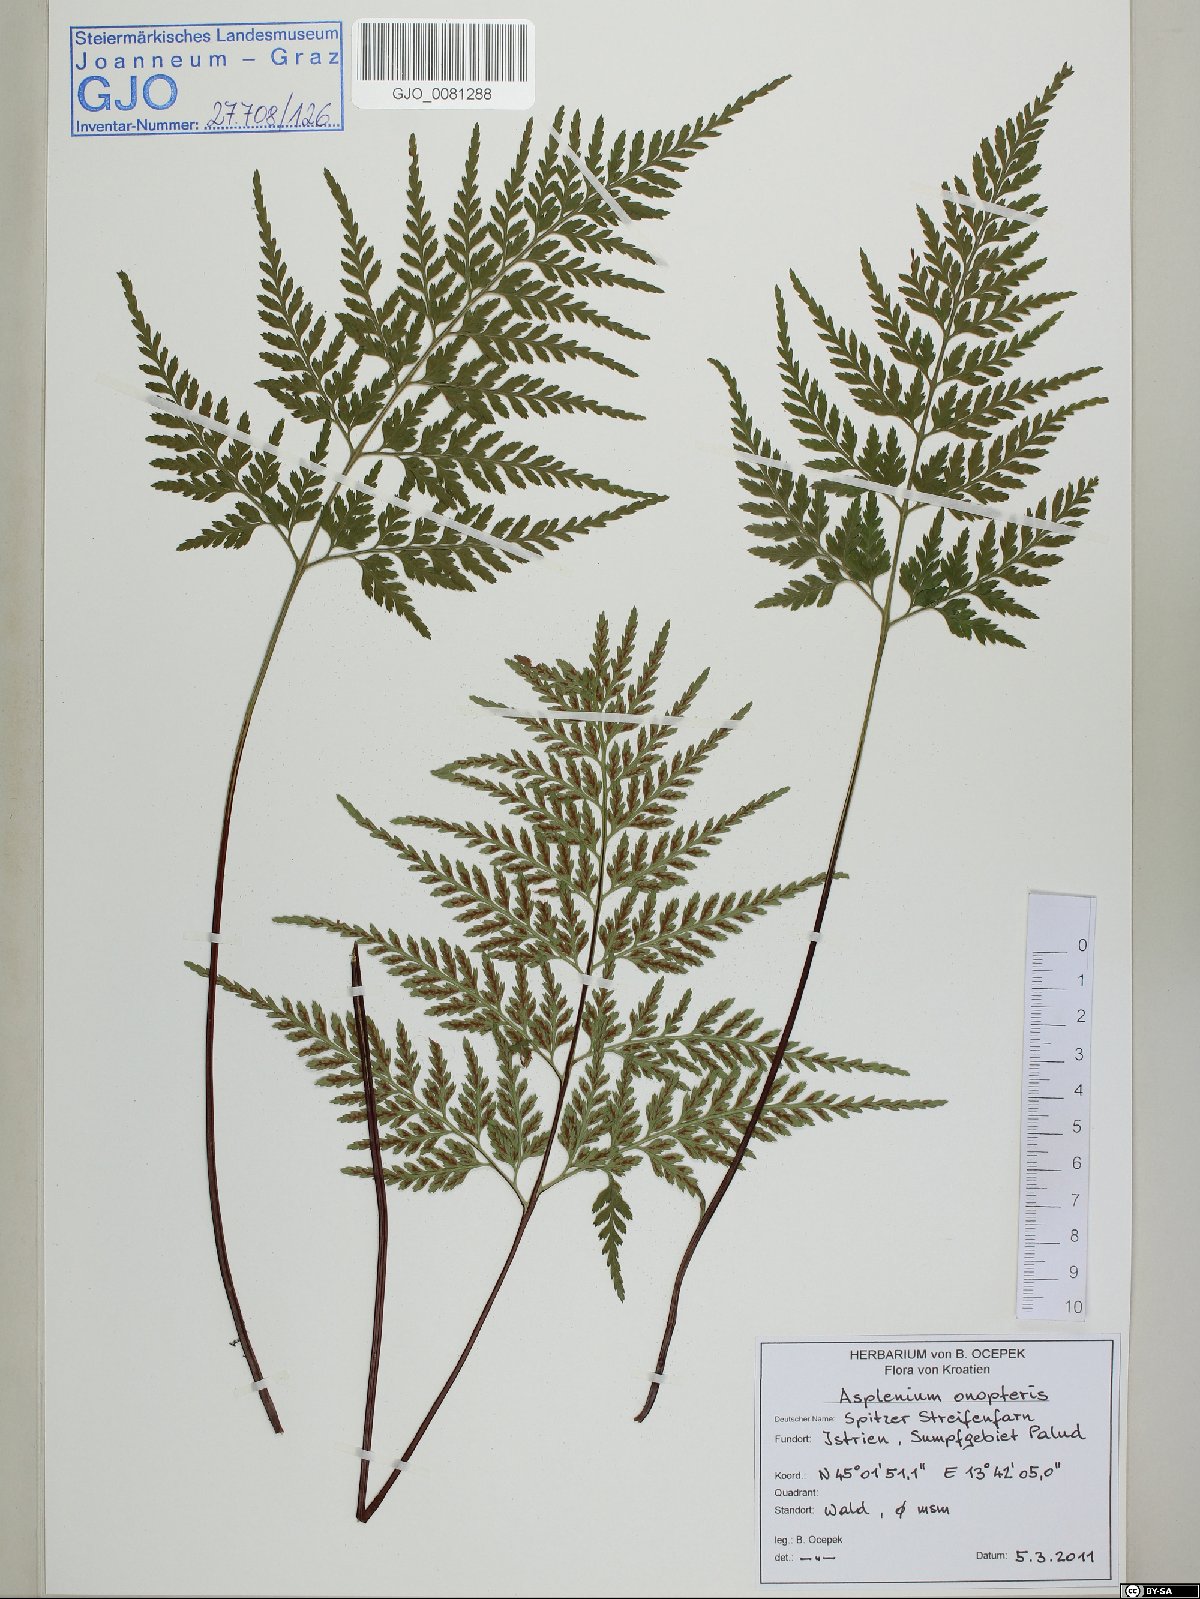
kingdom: Plantae
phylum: Tracheophyta
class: Polypodiopsida
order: Polypodiales
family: Aspleniaceae
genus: Asplenium
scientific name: Asplenium onopteris
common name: Irish spleenwort
